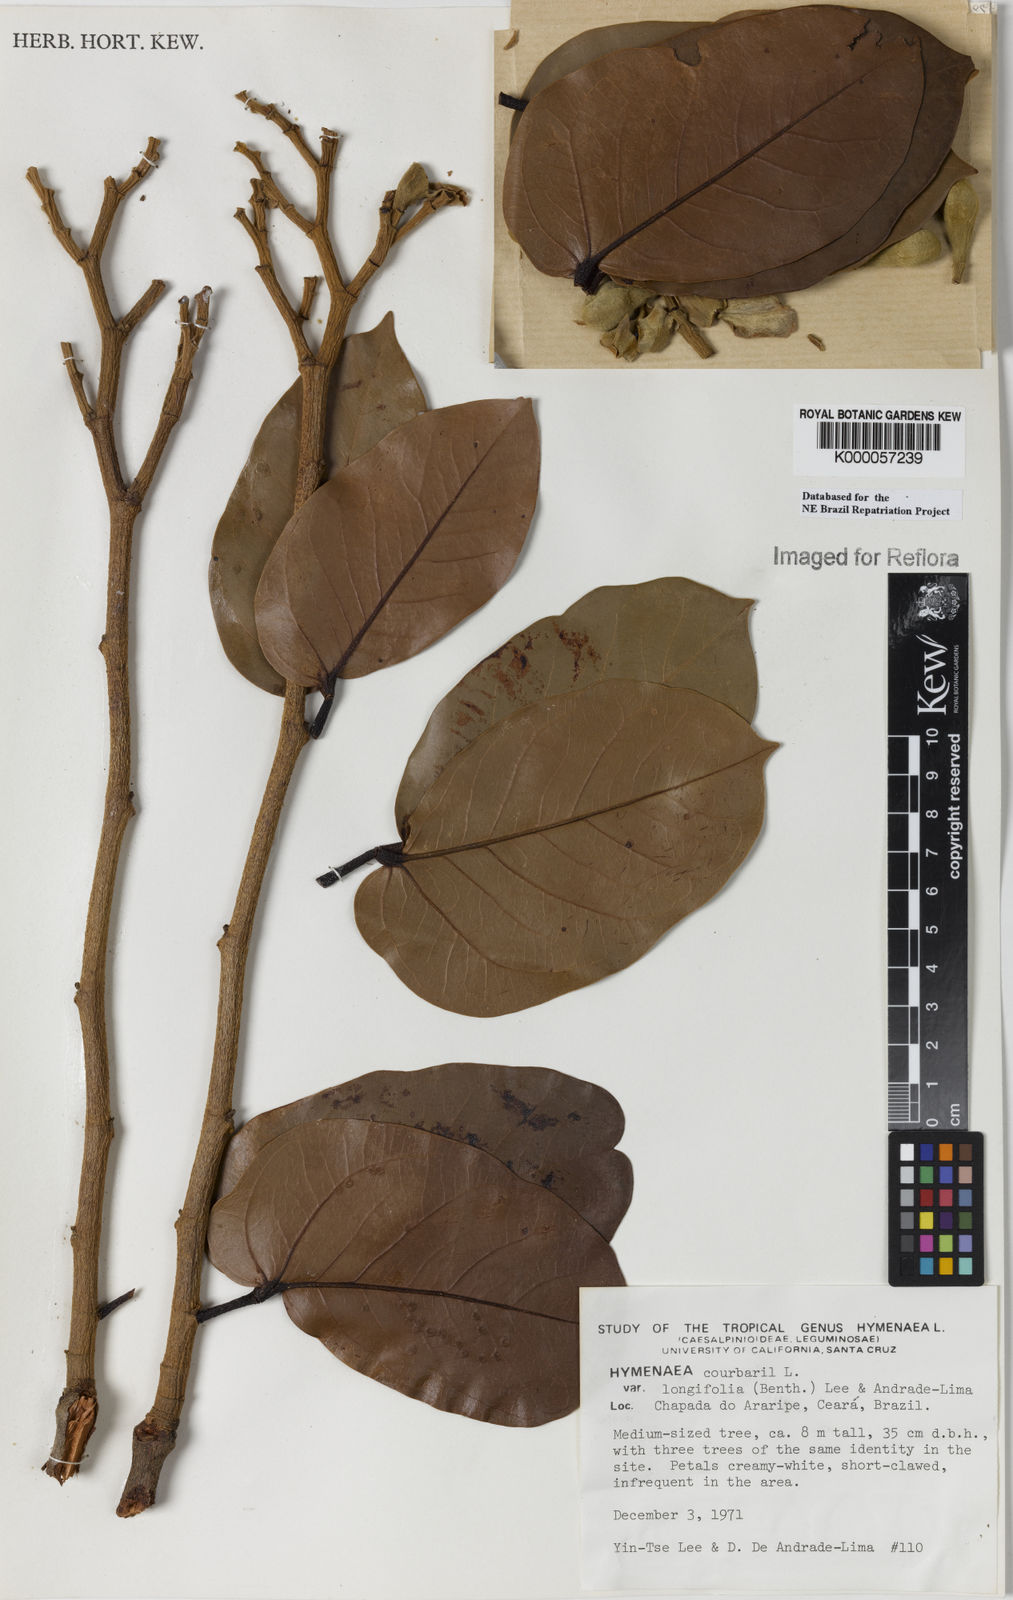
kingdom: Plantae
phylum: Tracheophyta
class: Magnoliopsida
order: Fabales
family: Fabaceae
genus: Hymenaea
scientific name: Hymenaea longifolia
